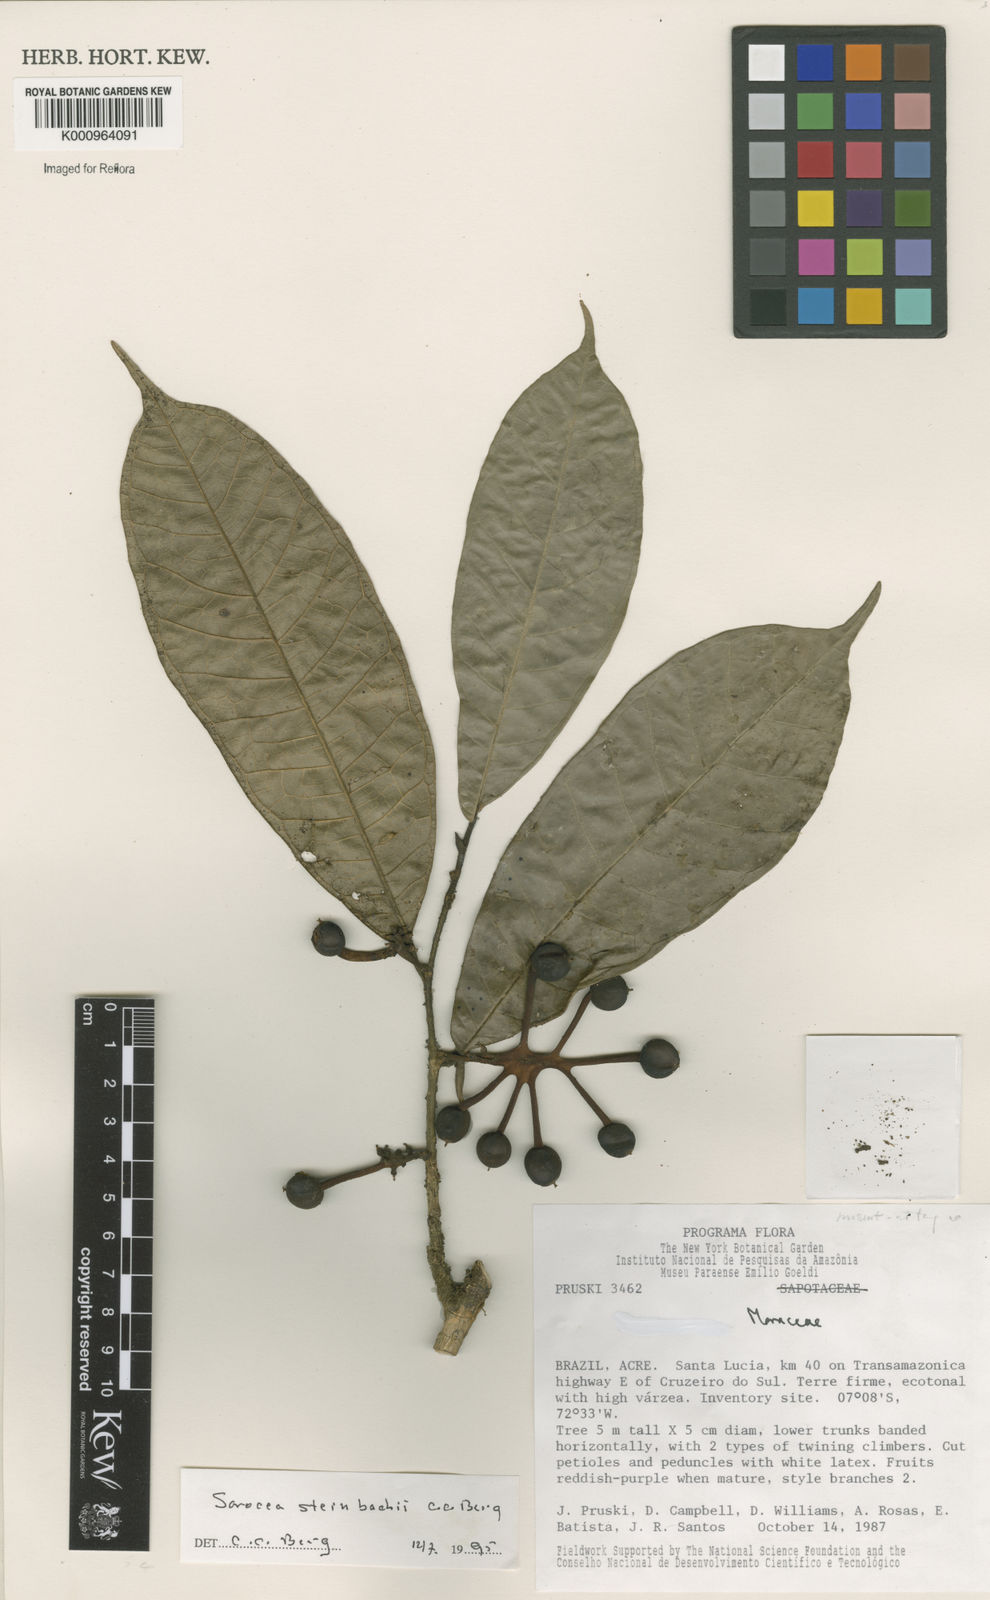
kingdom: Plantae
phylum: Tracheophyta
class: Magnoliopsida
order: Rosales
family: Moraceae
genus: Sorocea
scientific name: Sorocea steinbachii
